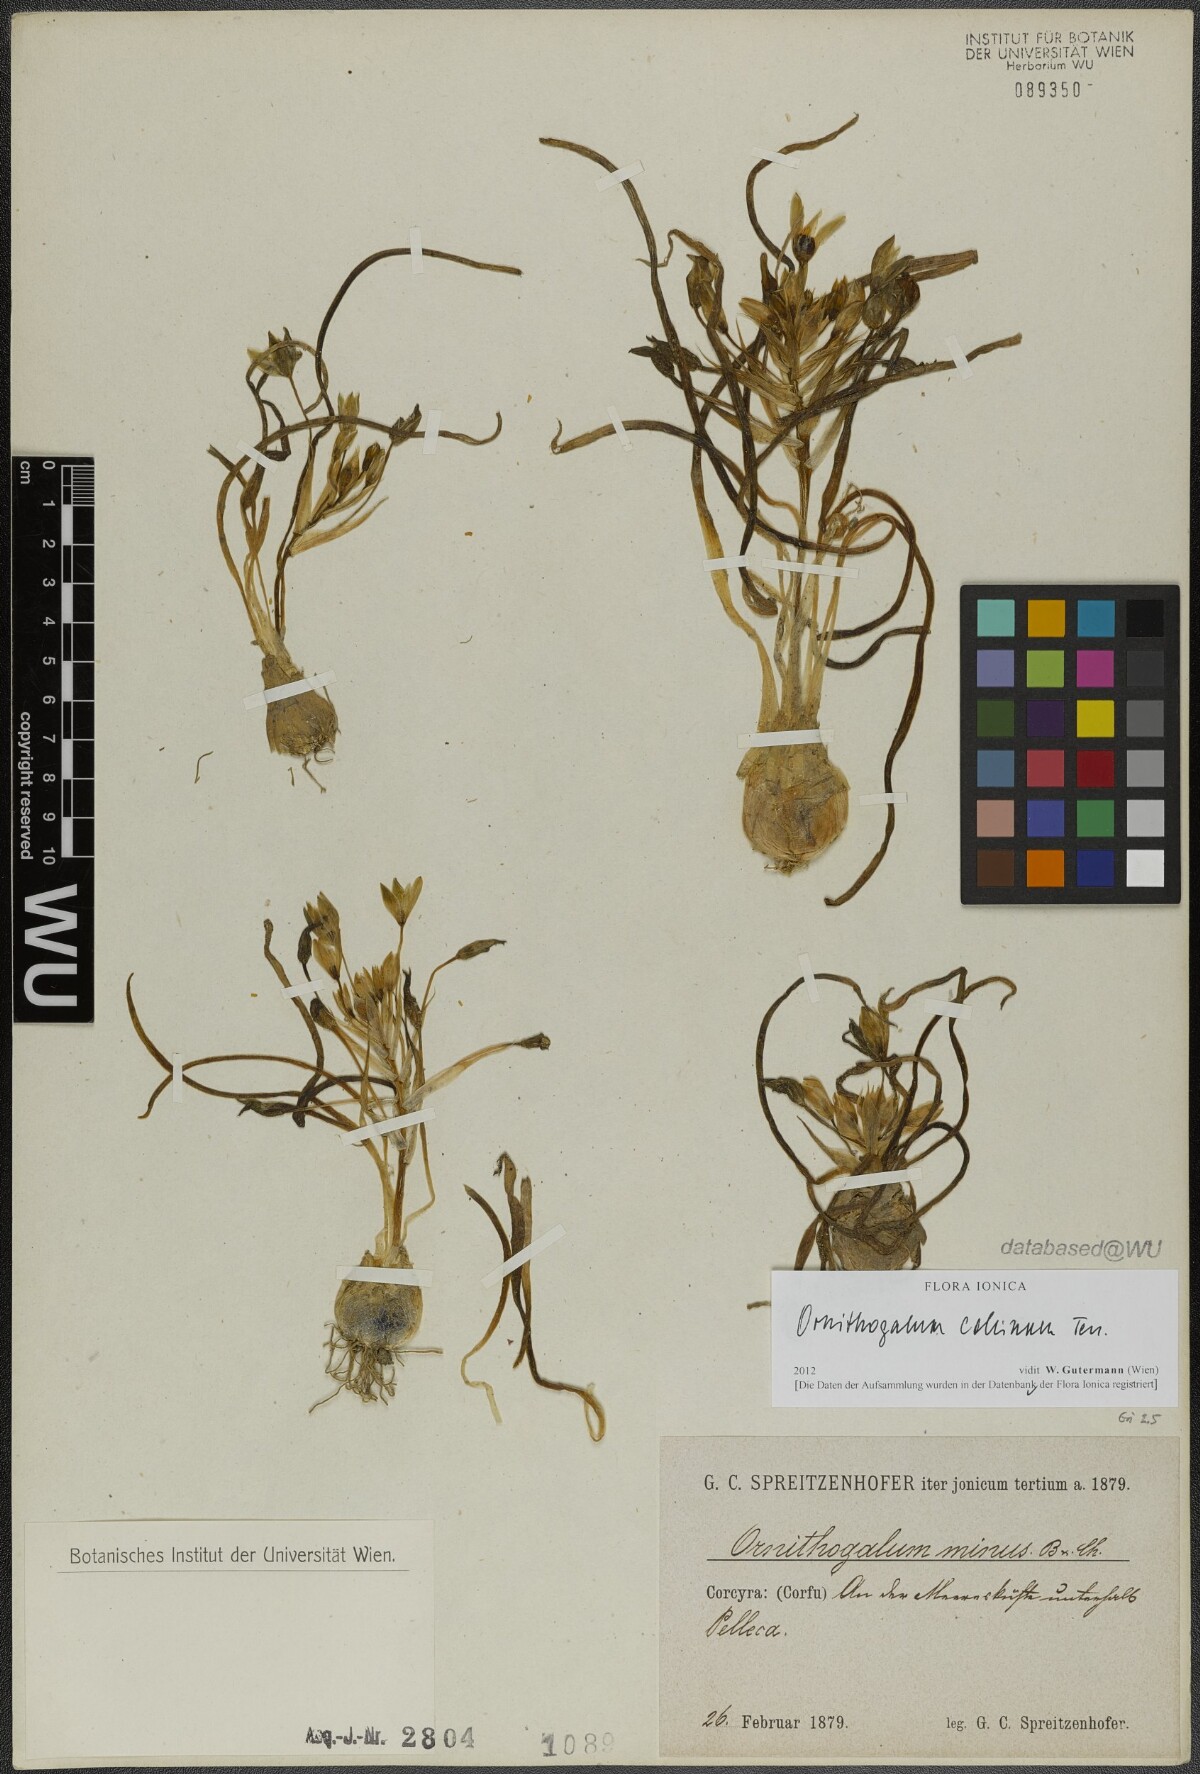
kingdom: Plantae
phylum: Tracheophyta
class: Liliopsida
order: Asparagales
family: Asparagaceae
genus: Ornithogalum
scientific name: Ornithogalum collinum
